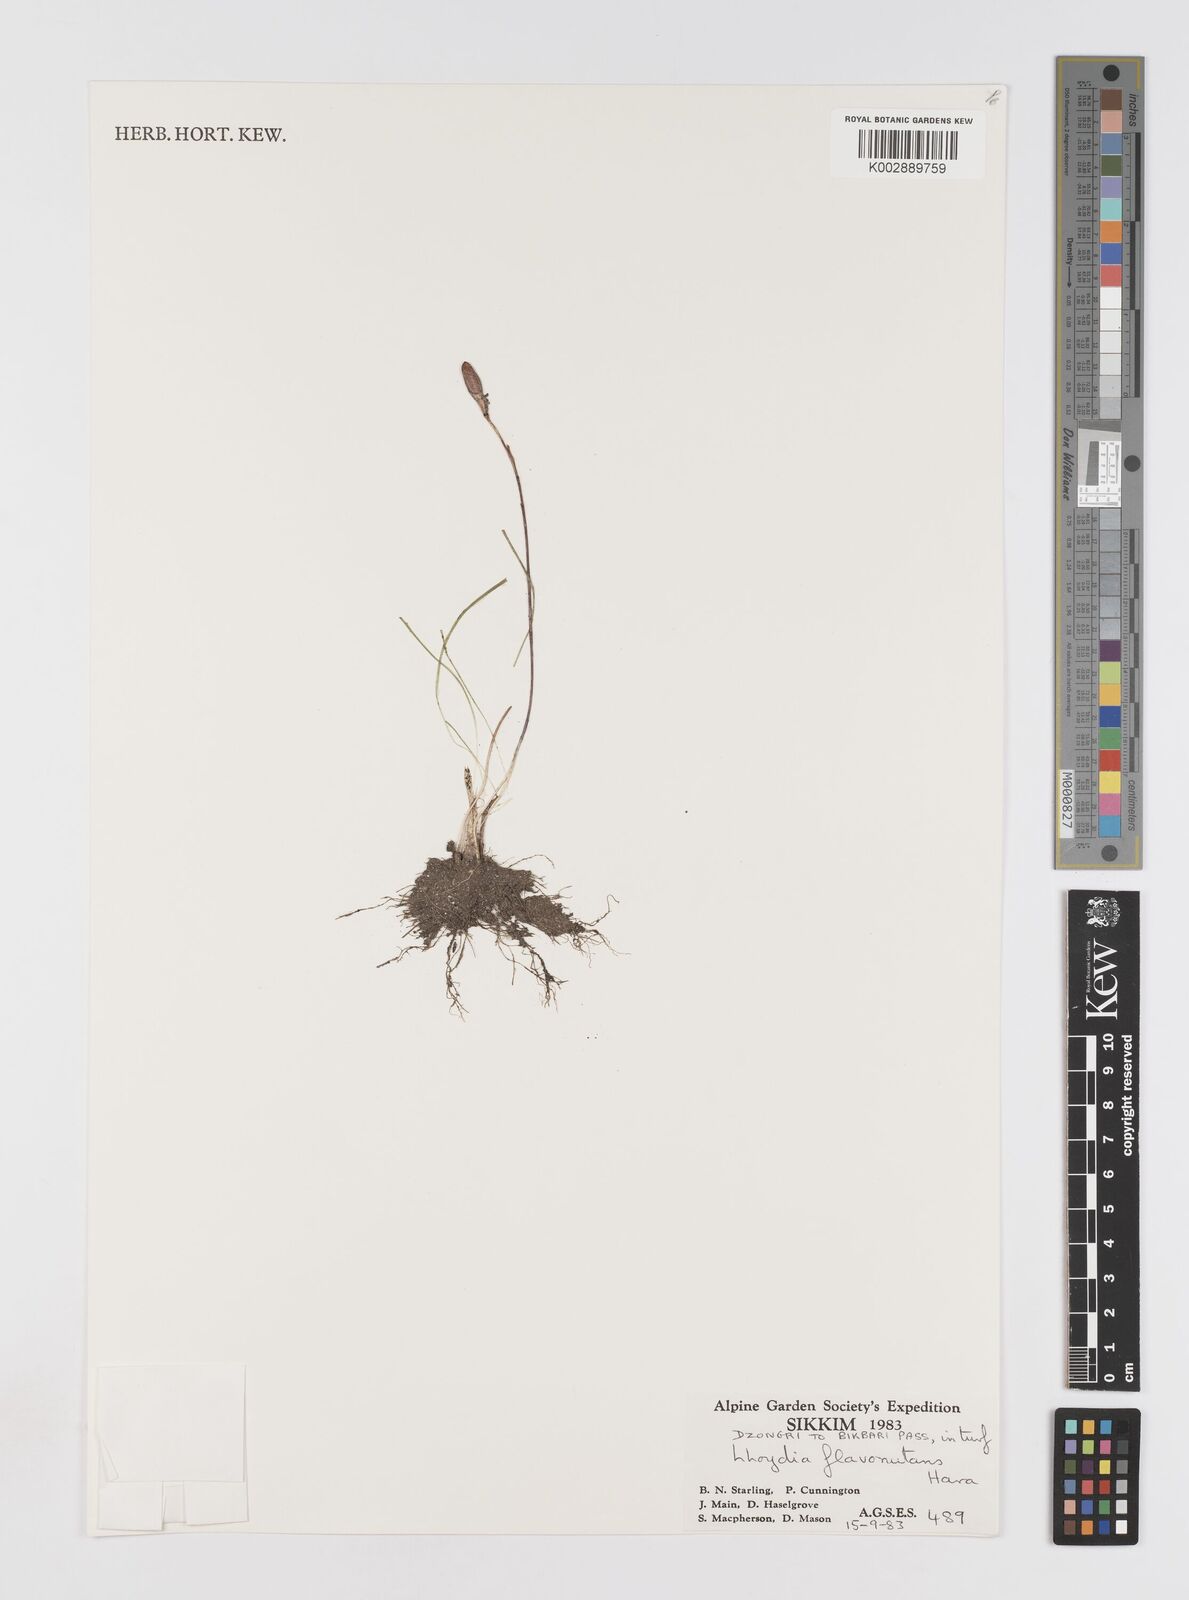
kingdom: Plantae
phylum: Tracheophyta
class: Liliopsida
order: Liliales
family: Liliaceae
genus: Gagea
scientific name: Gagea flavonutans
